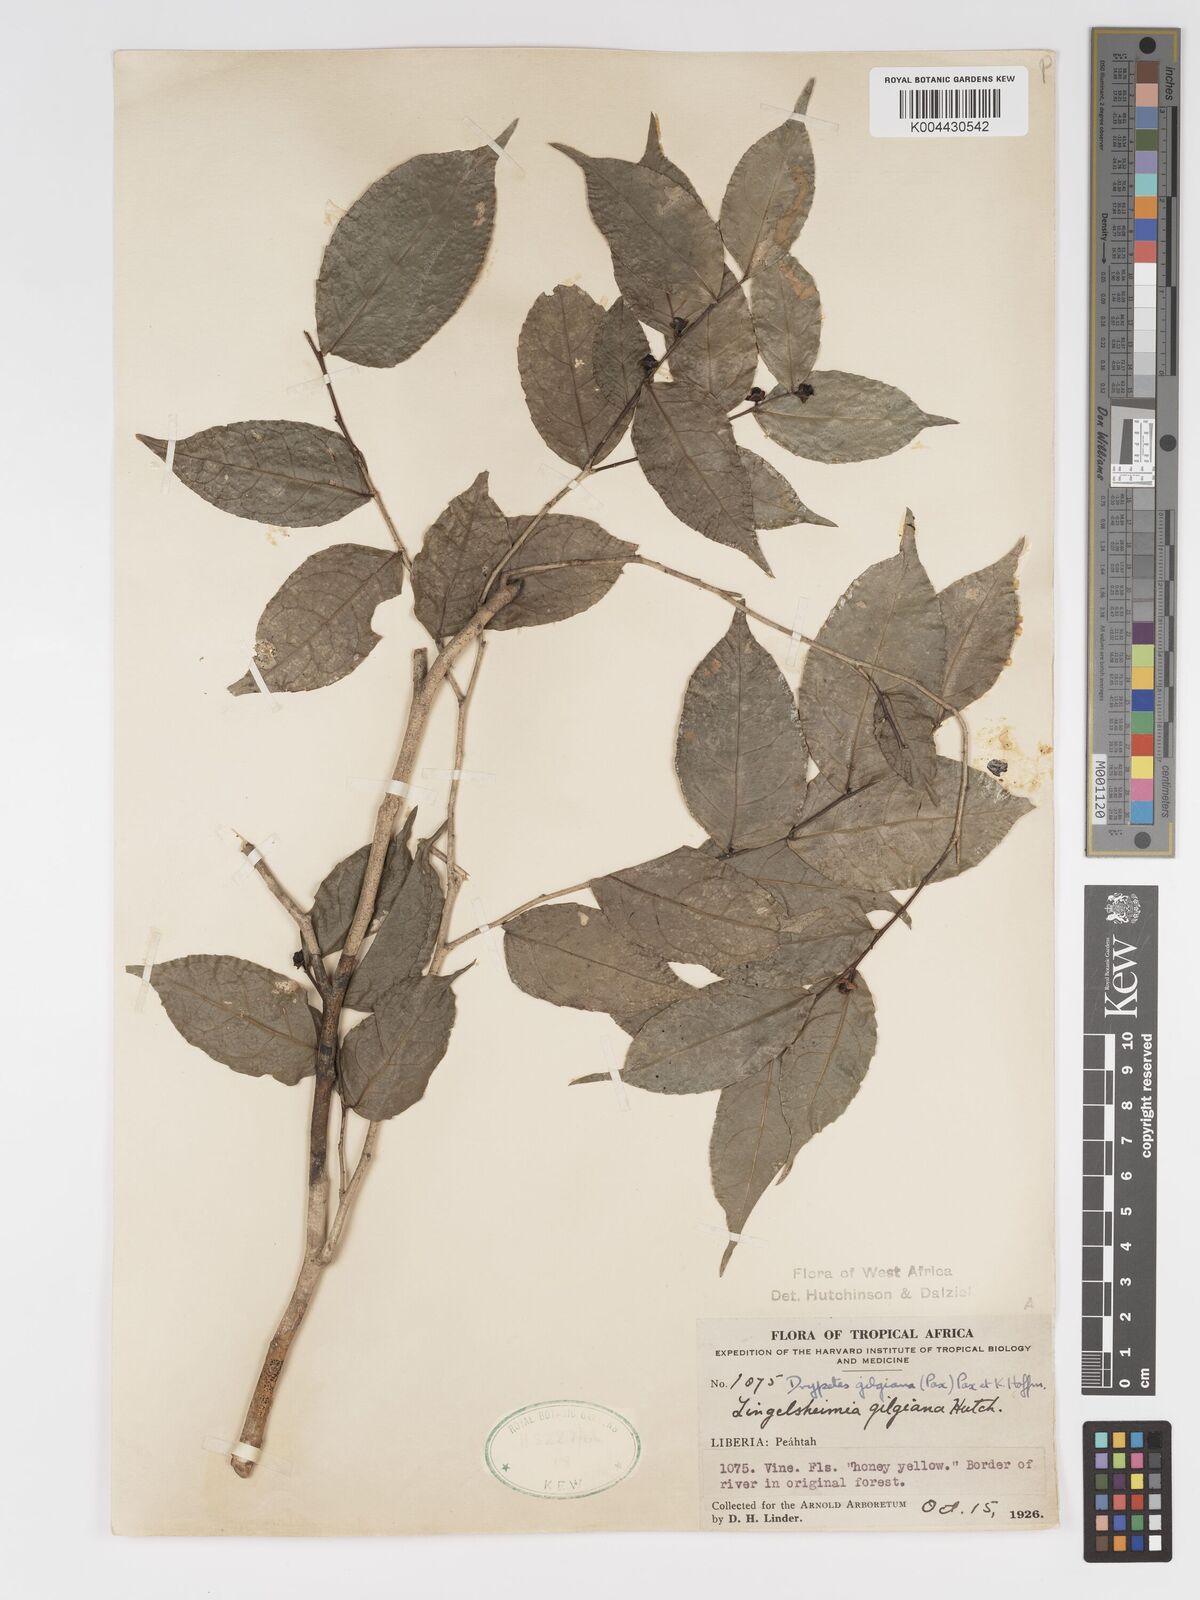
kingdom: Plantae
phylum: Tracheophyta
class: Magnoliopsida
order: Malpighiales
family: Putranjivaceae
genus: Drypetes
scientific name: Drypetes gilgiana
